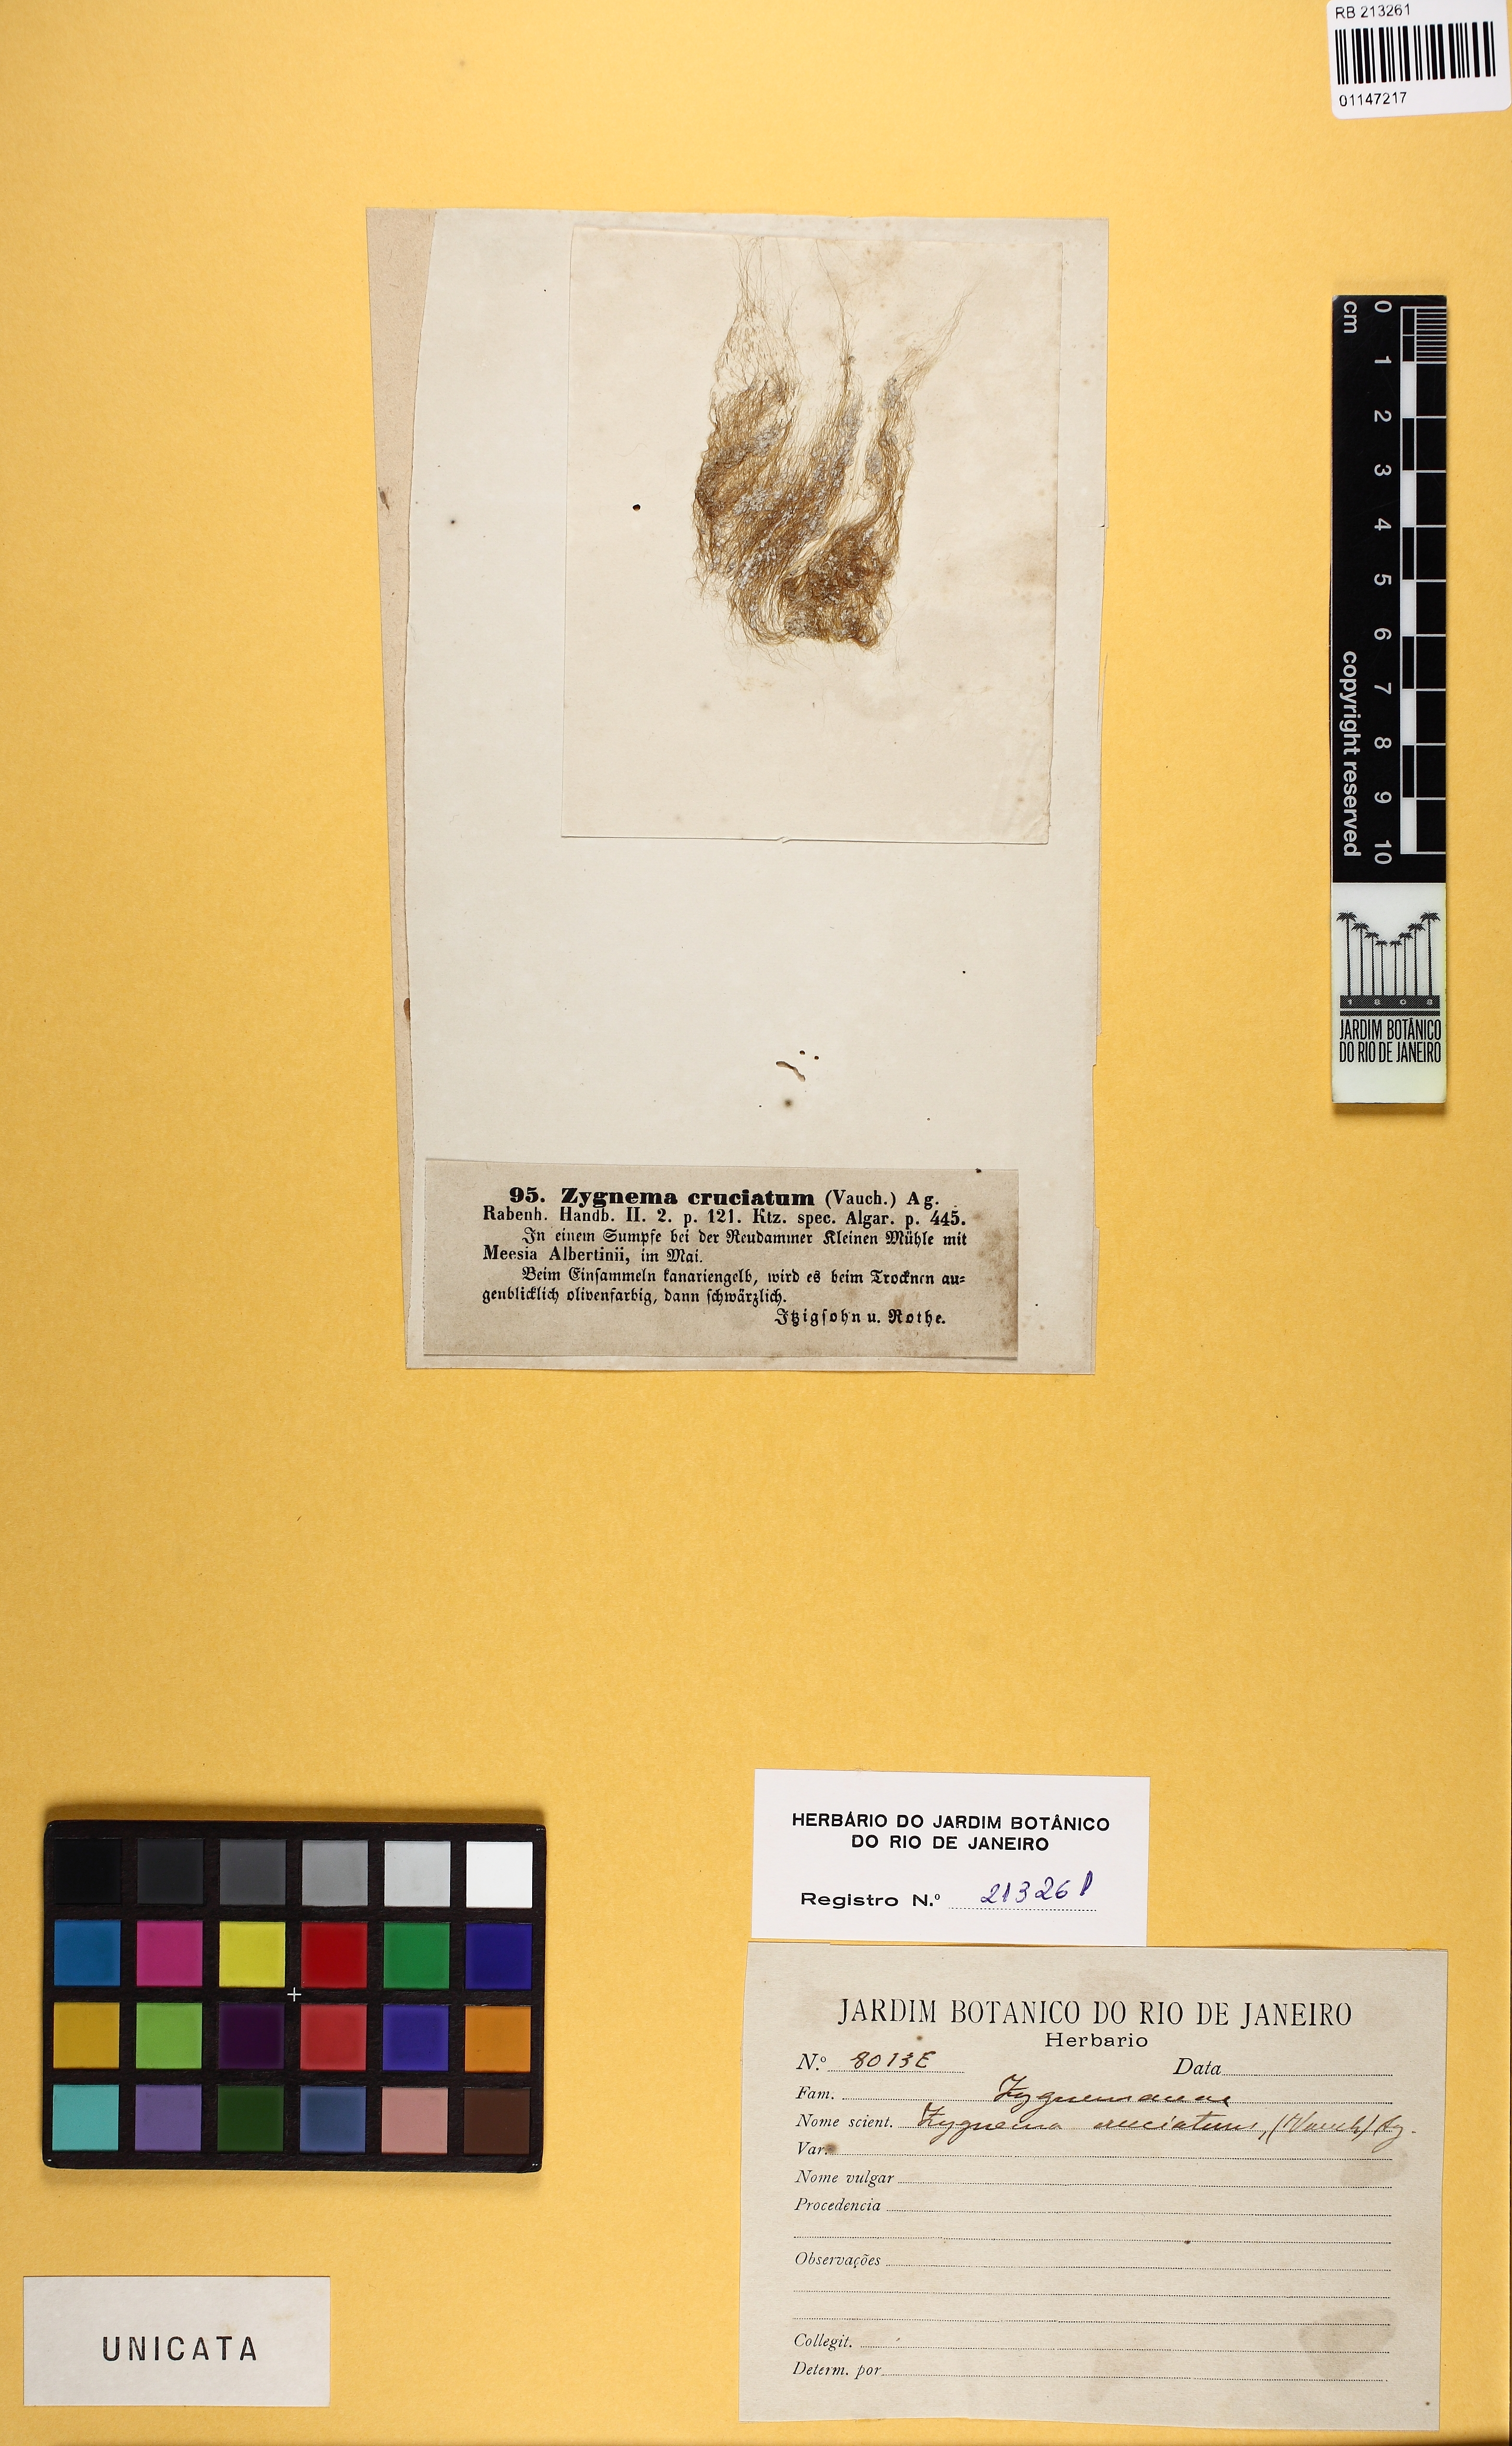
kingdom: Plantae
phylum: Charophyta
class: Zygnematophyceae
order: Zygnematales
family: Zygnemataceae
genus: Zygnema
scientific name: Zygnema cruciatum
